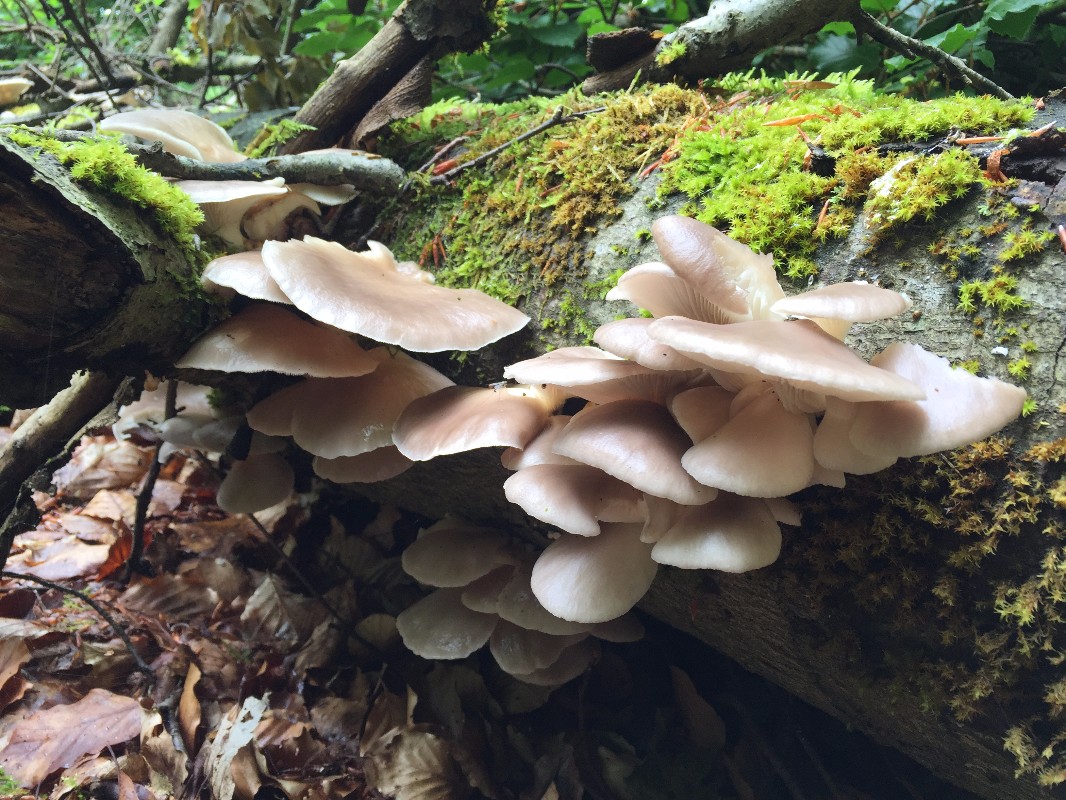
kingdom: Fungi
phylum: Basidiomycota
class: Agaricomycetes
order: Agaricales
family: Pleurotaceae
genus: Pleurotus
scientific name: Pleurotus pulmonarius
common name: sommer-østershat
